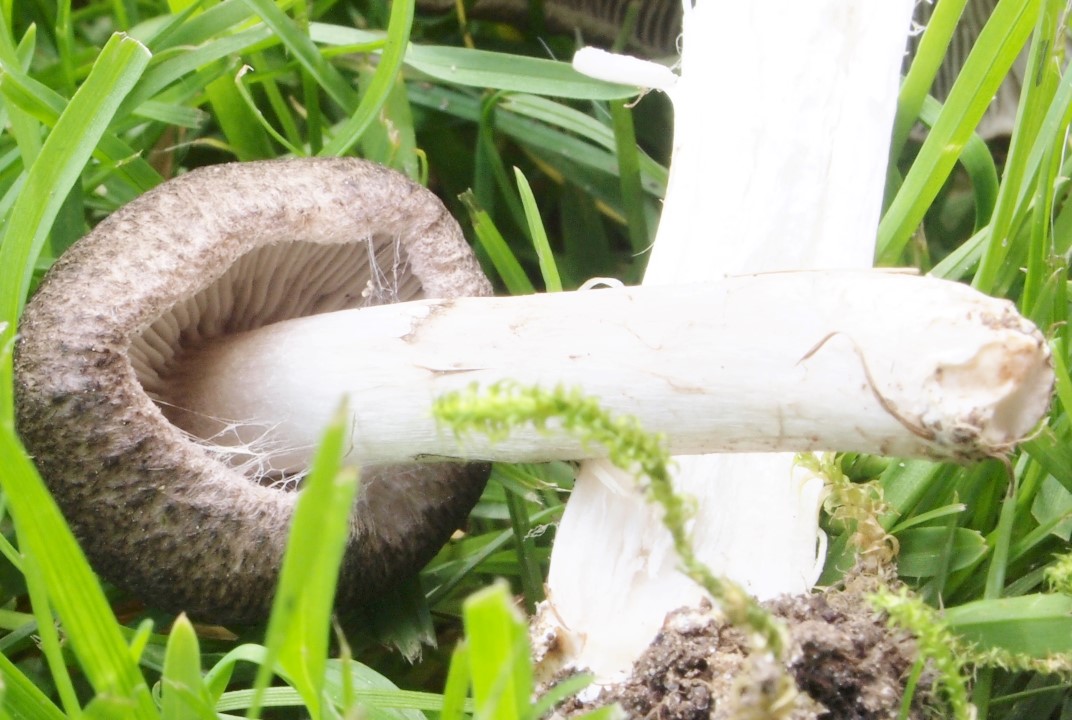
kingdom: Fungi
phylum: Basidiomycota
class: Agaricomycetes
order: Agaricales
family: Tricholomataceae
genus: Tricholoma
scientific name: Tricholoma scalpturatum
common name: gulplettet ridderhat
